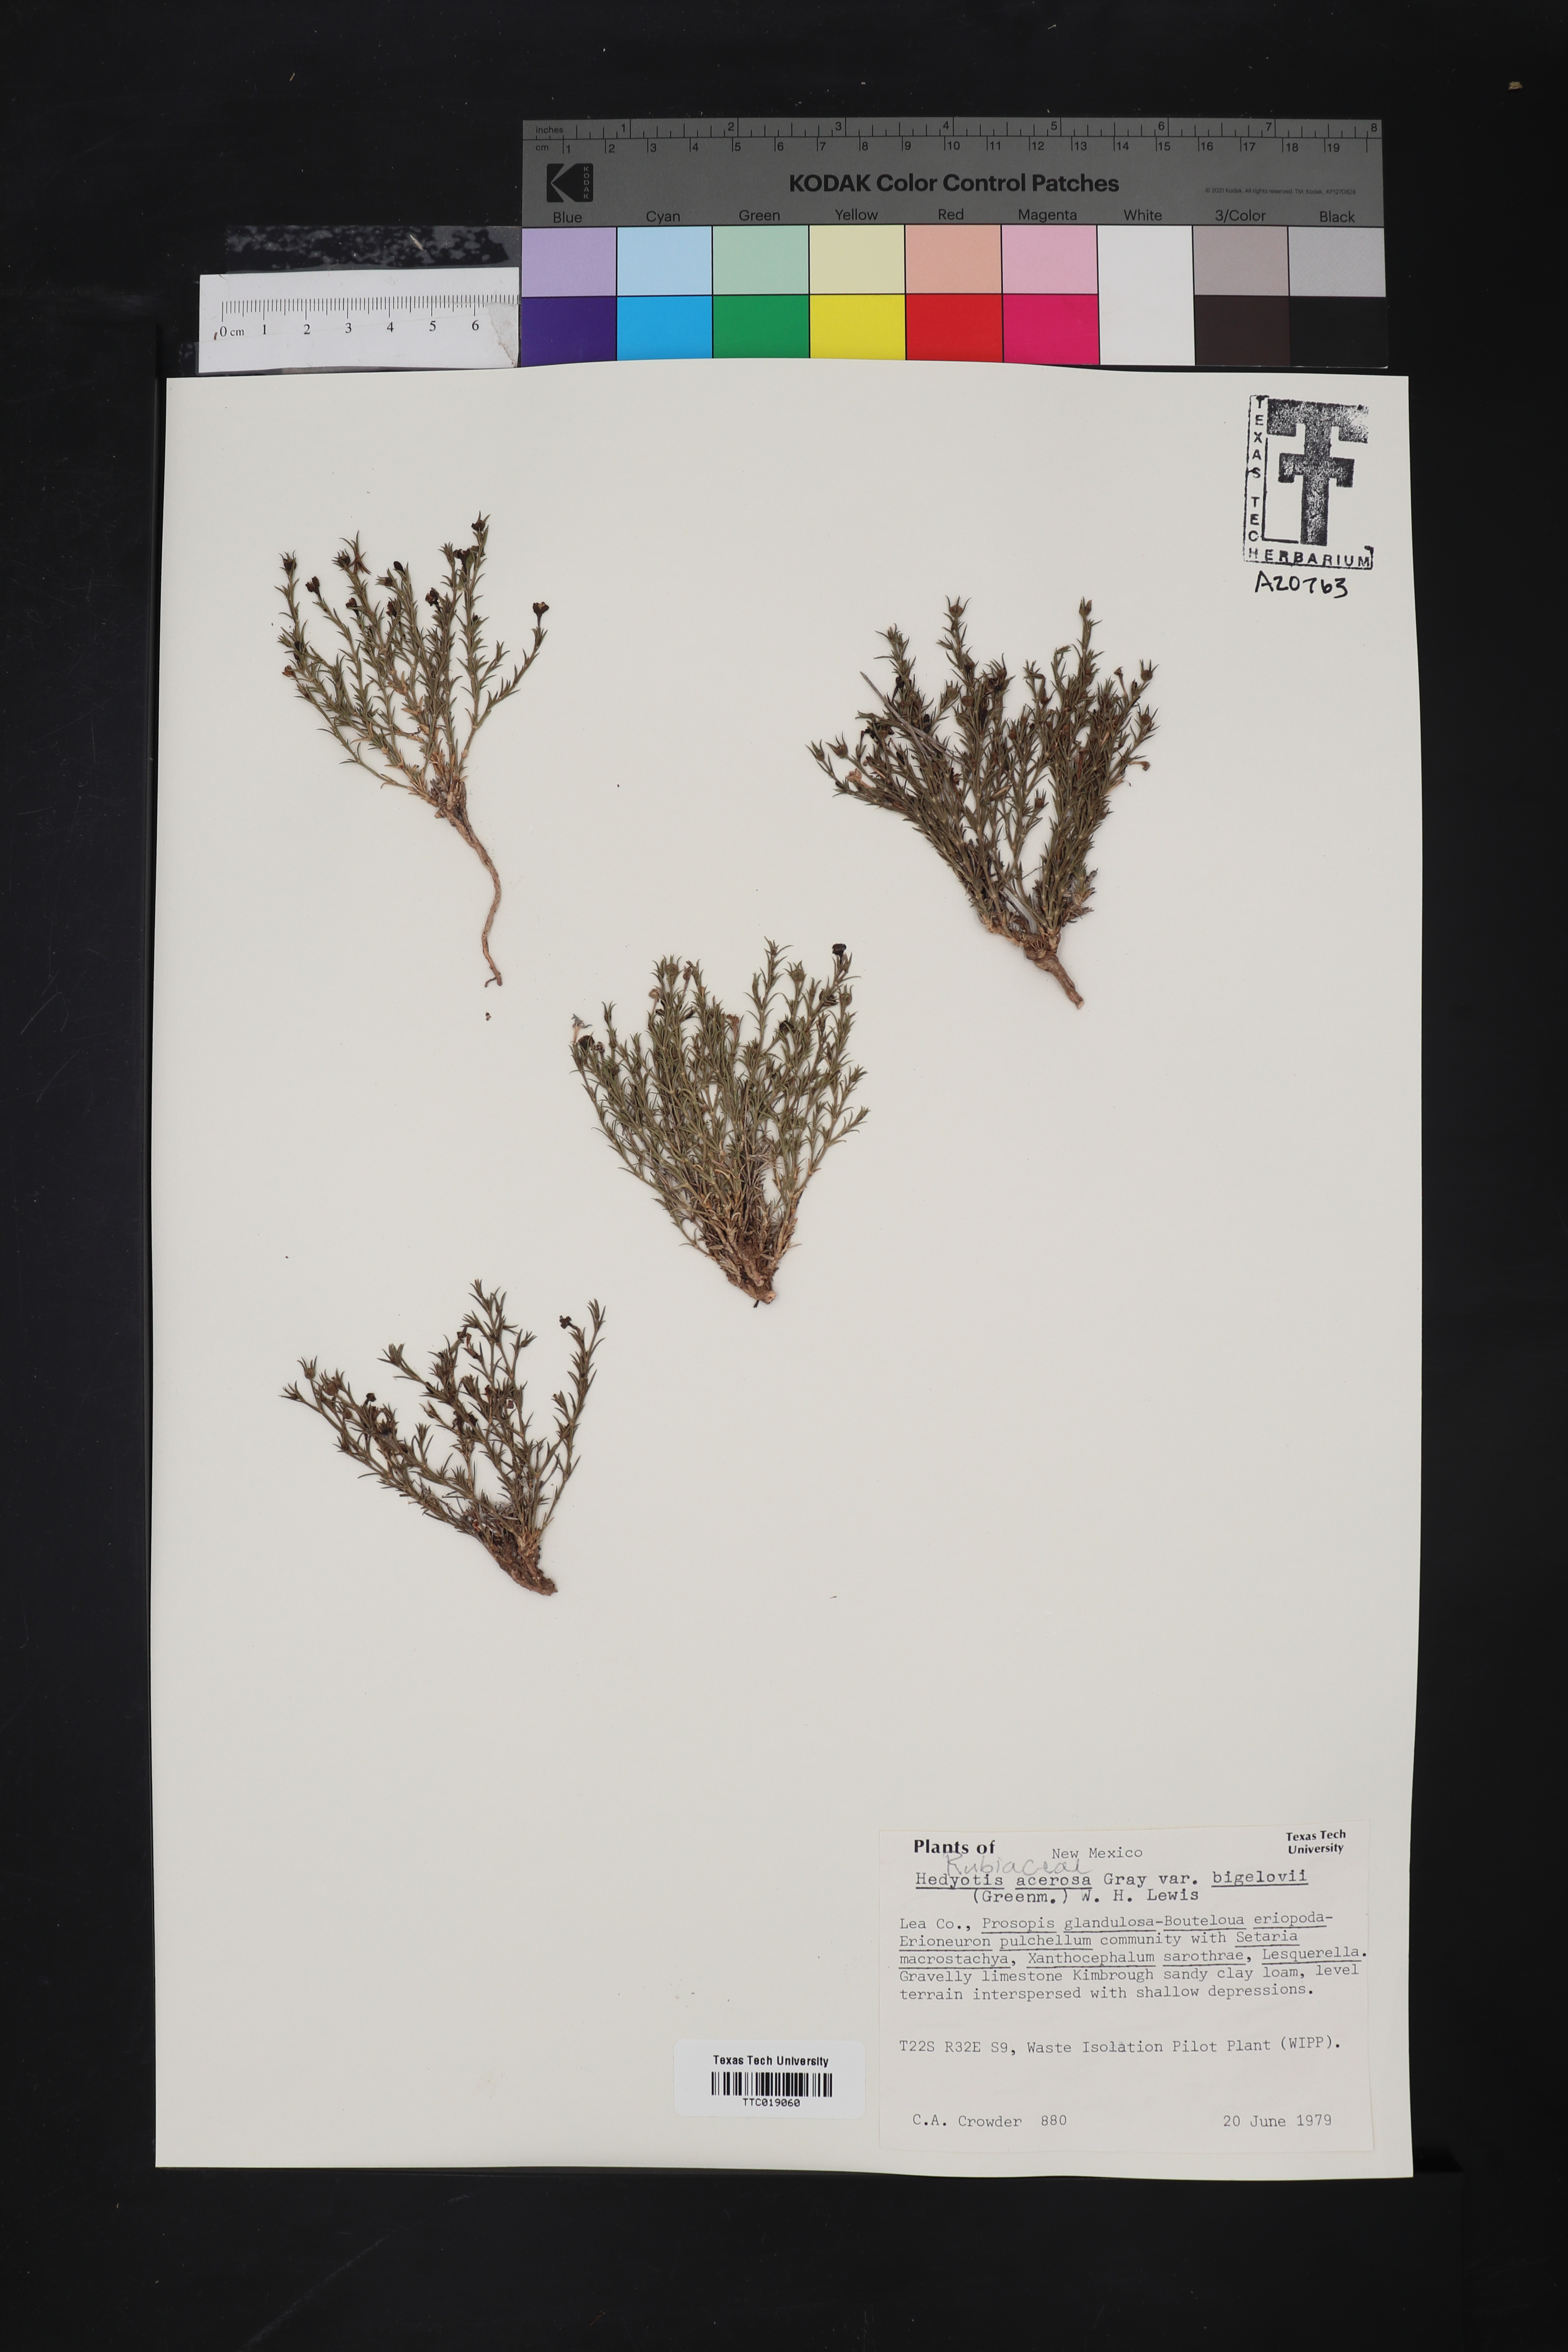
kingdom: Plantae
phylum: Tracheophyta
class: Magnoliopsida
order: Gentianales
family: Rubiaceae
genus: Houstonia
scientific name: Houstonia acerosa
